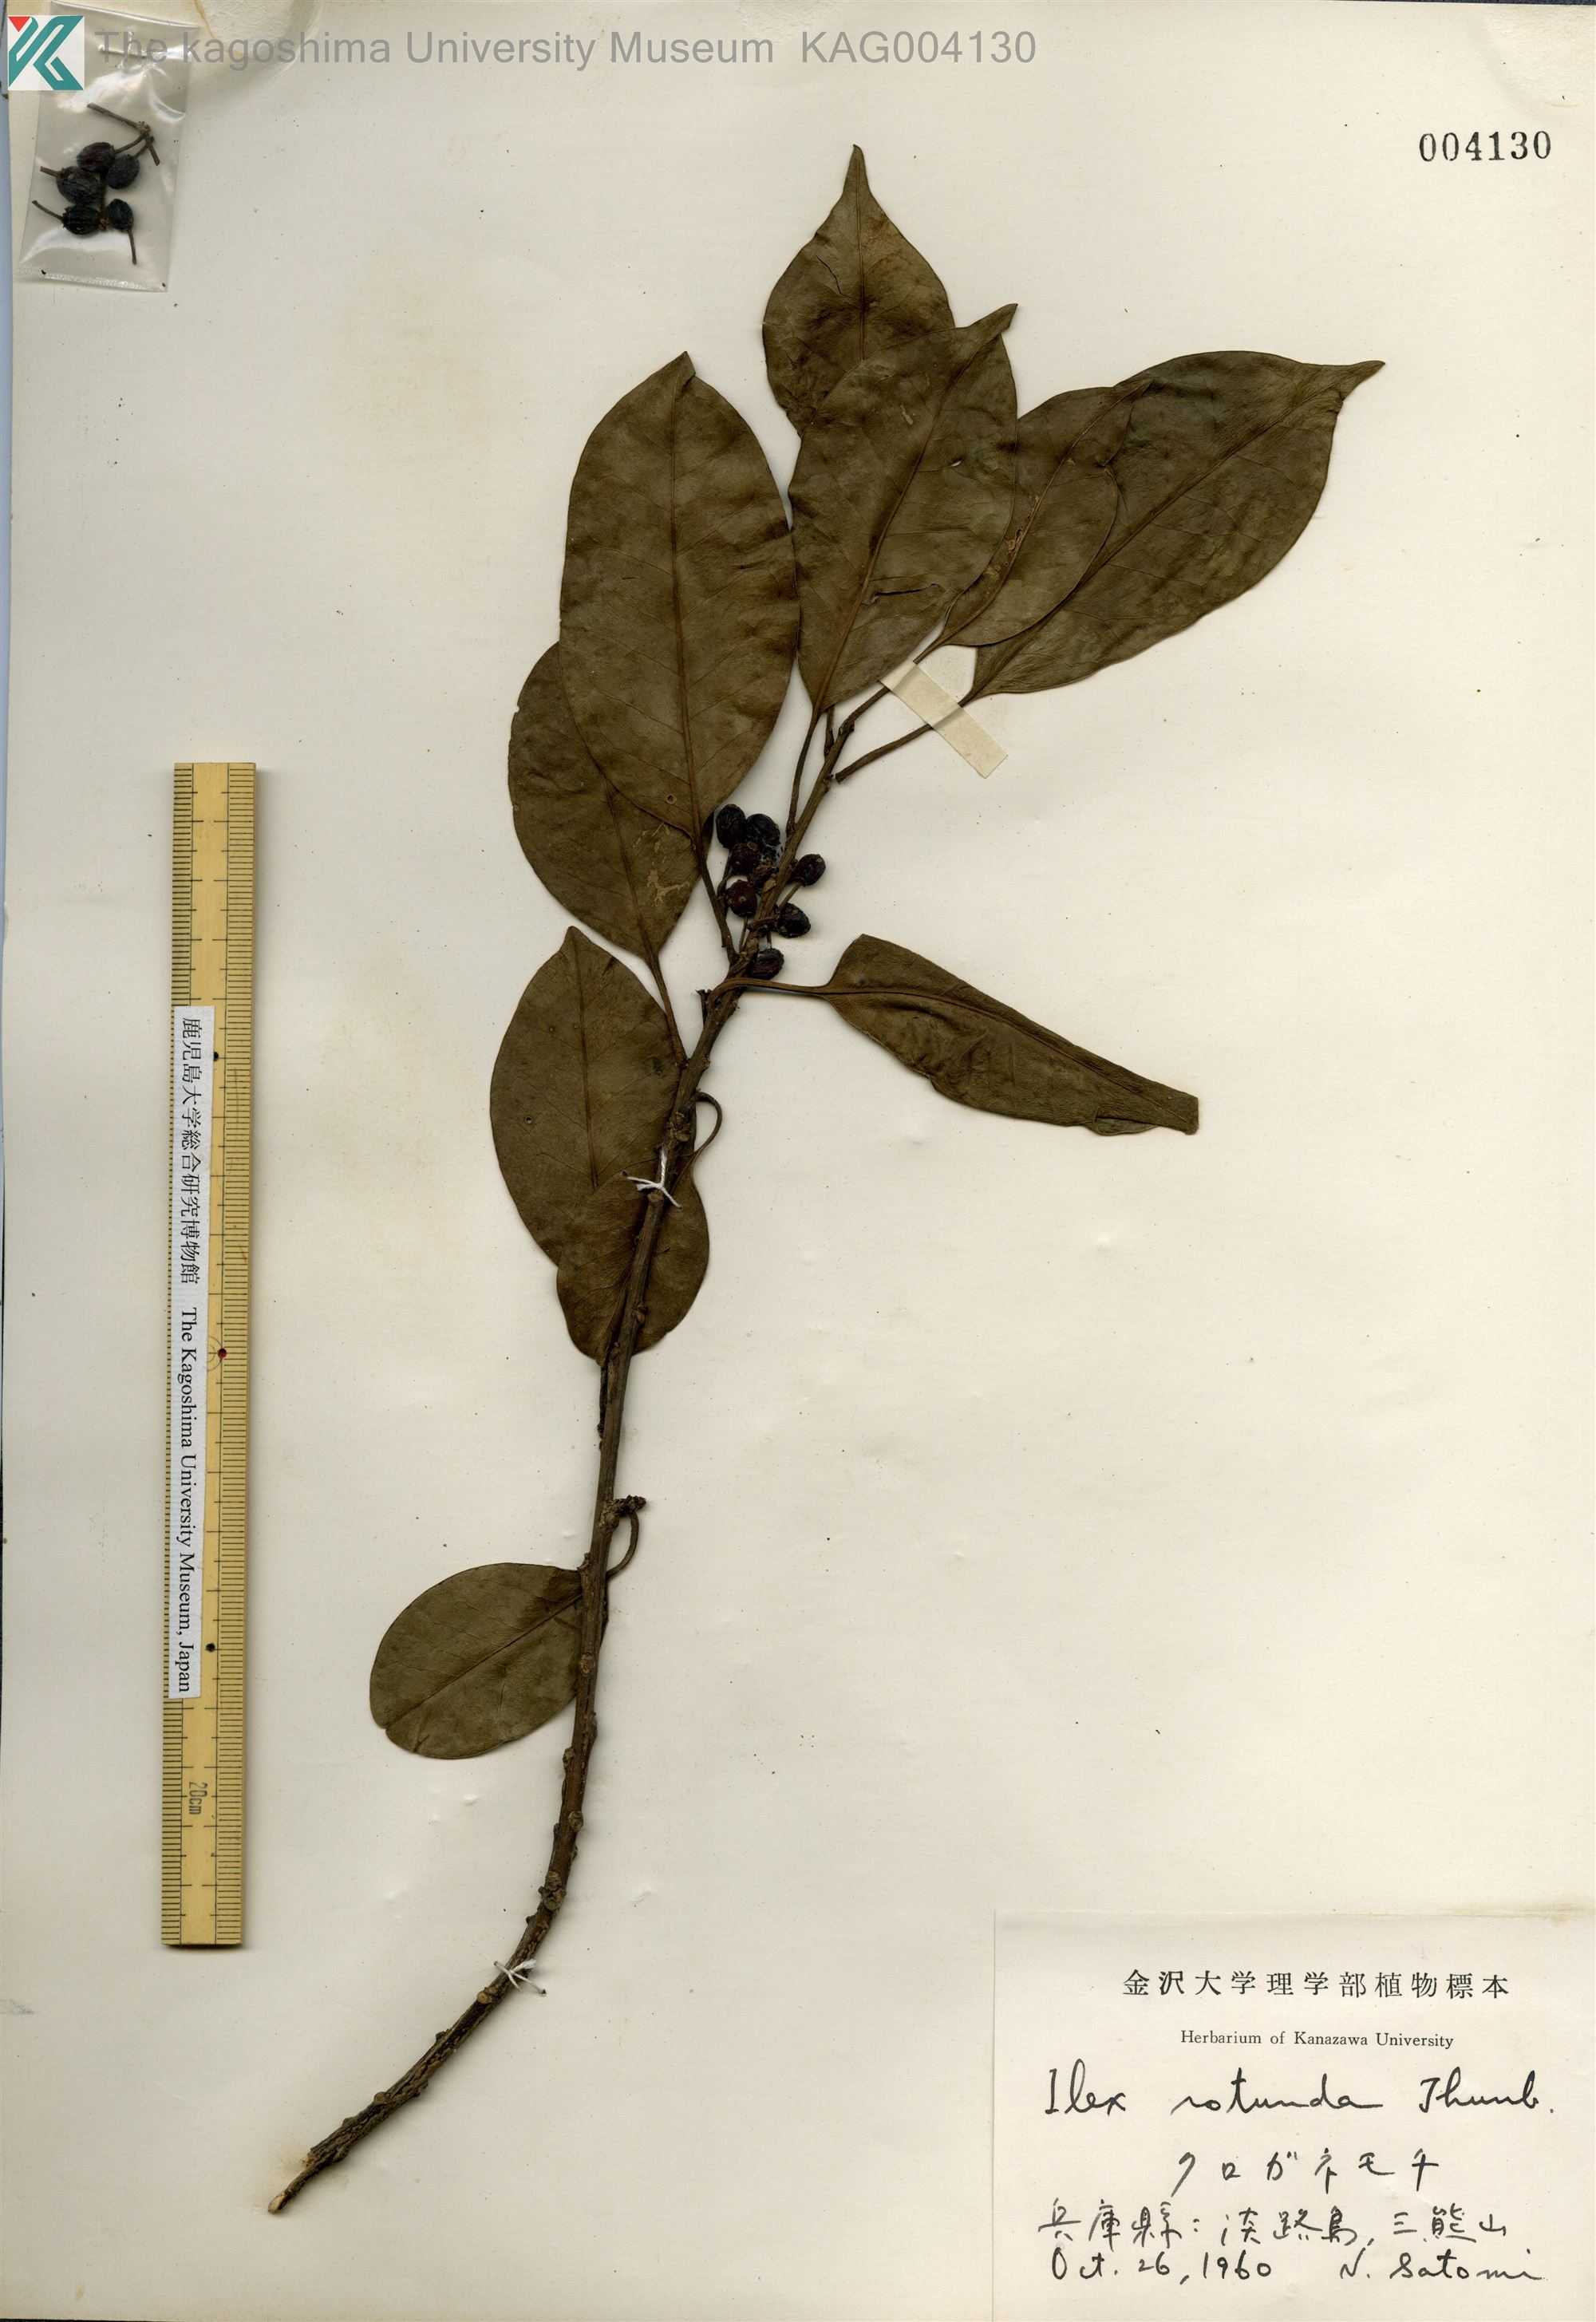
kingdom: Plantae
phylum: Tracheophyta
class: Magnoliopsida
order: Aquifoliales
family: Aquifoliaceae
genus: Ilex
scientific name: Ilex rotunda
